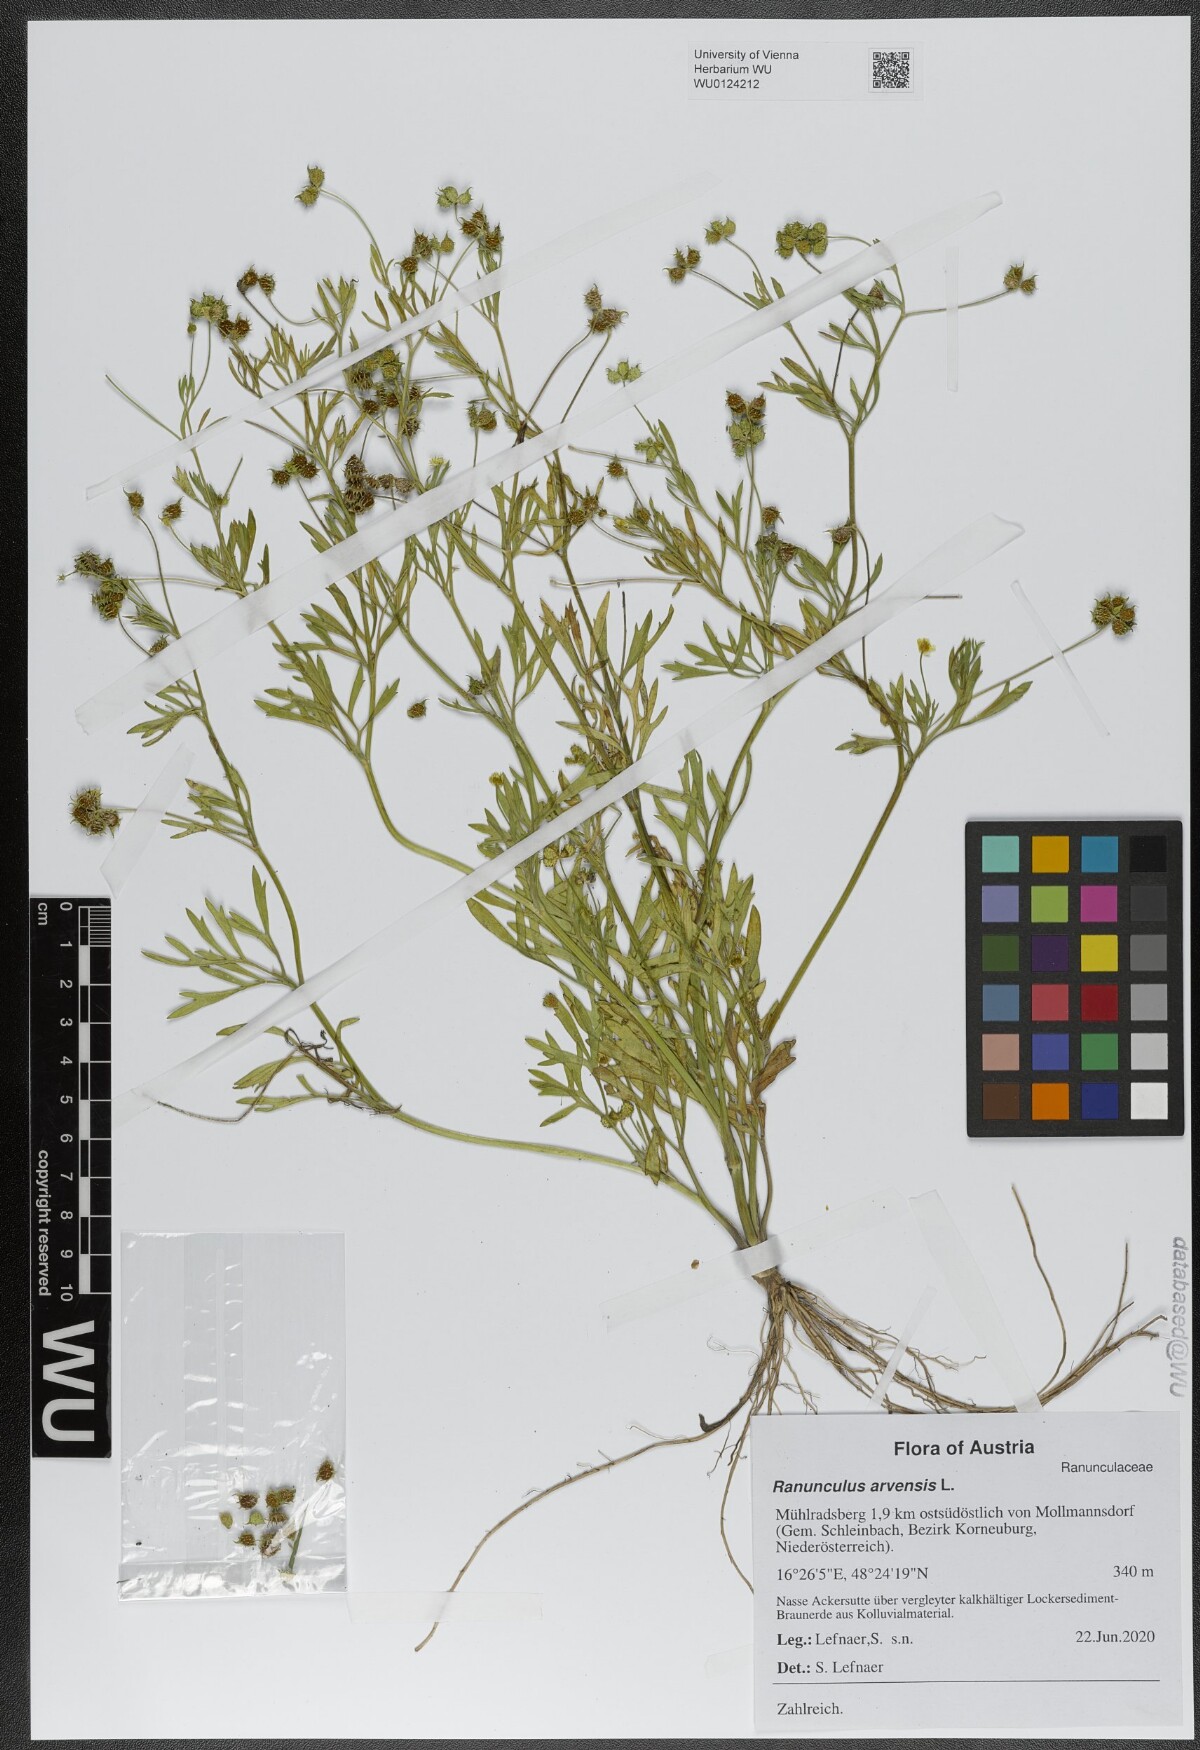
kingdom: Plantae
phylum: Tracheophyta
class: Magnoliopsida
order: Ranunculales
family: Ranunculaceae
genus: Ranunculus
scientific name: Ranunculus arvensis
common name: Corn buttercup
